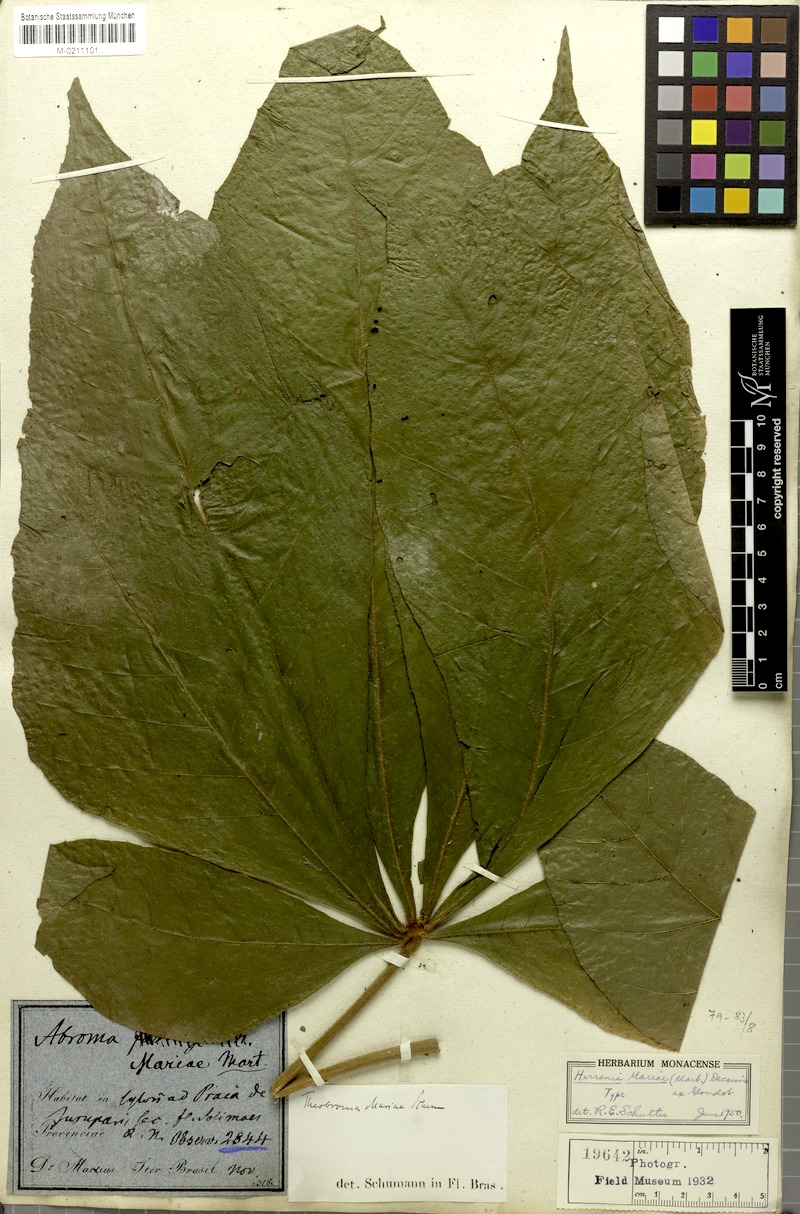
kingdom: Plantae
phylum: Tracheophyta
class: Magnoliopsida
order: Malvales
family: Malvaceae
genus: Abroma
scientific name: Abroma augustum
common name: Devil's-cotton
